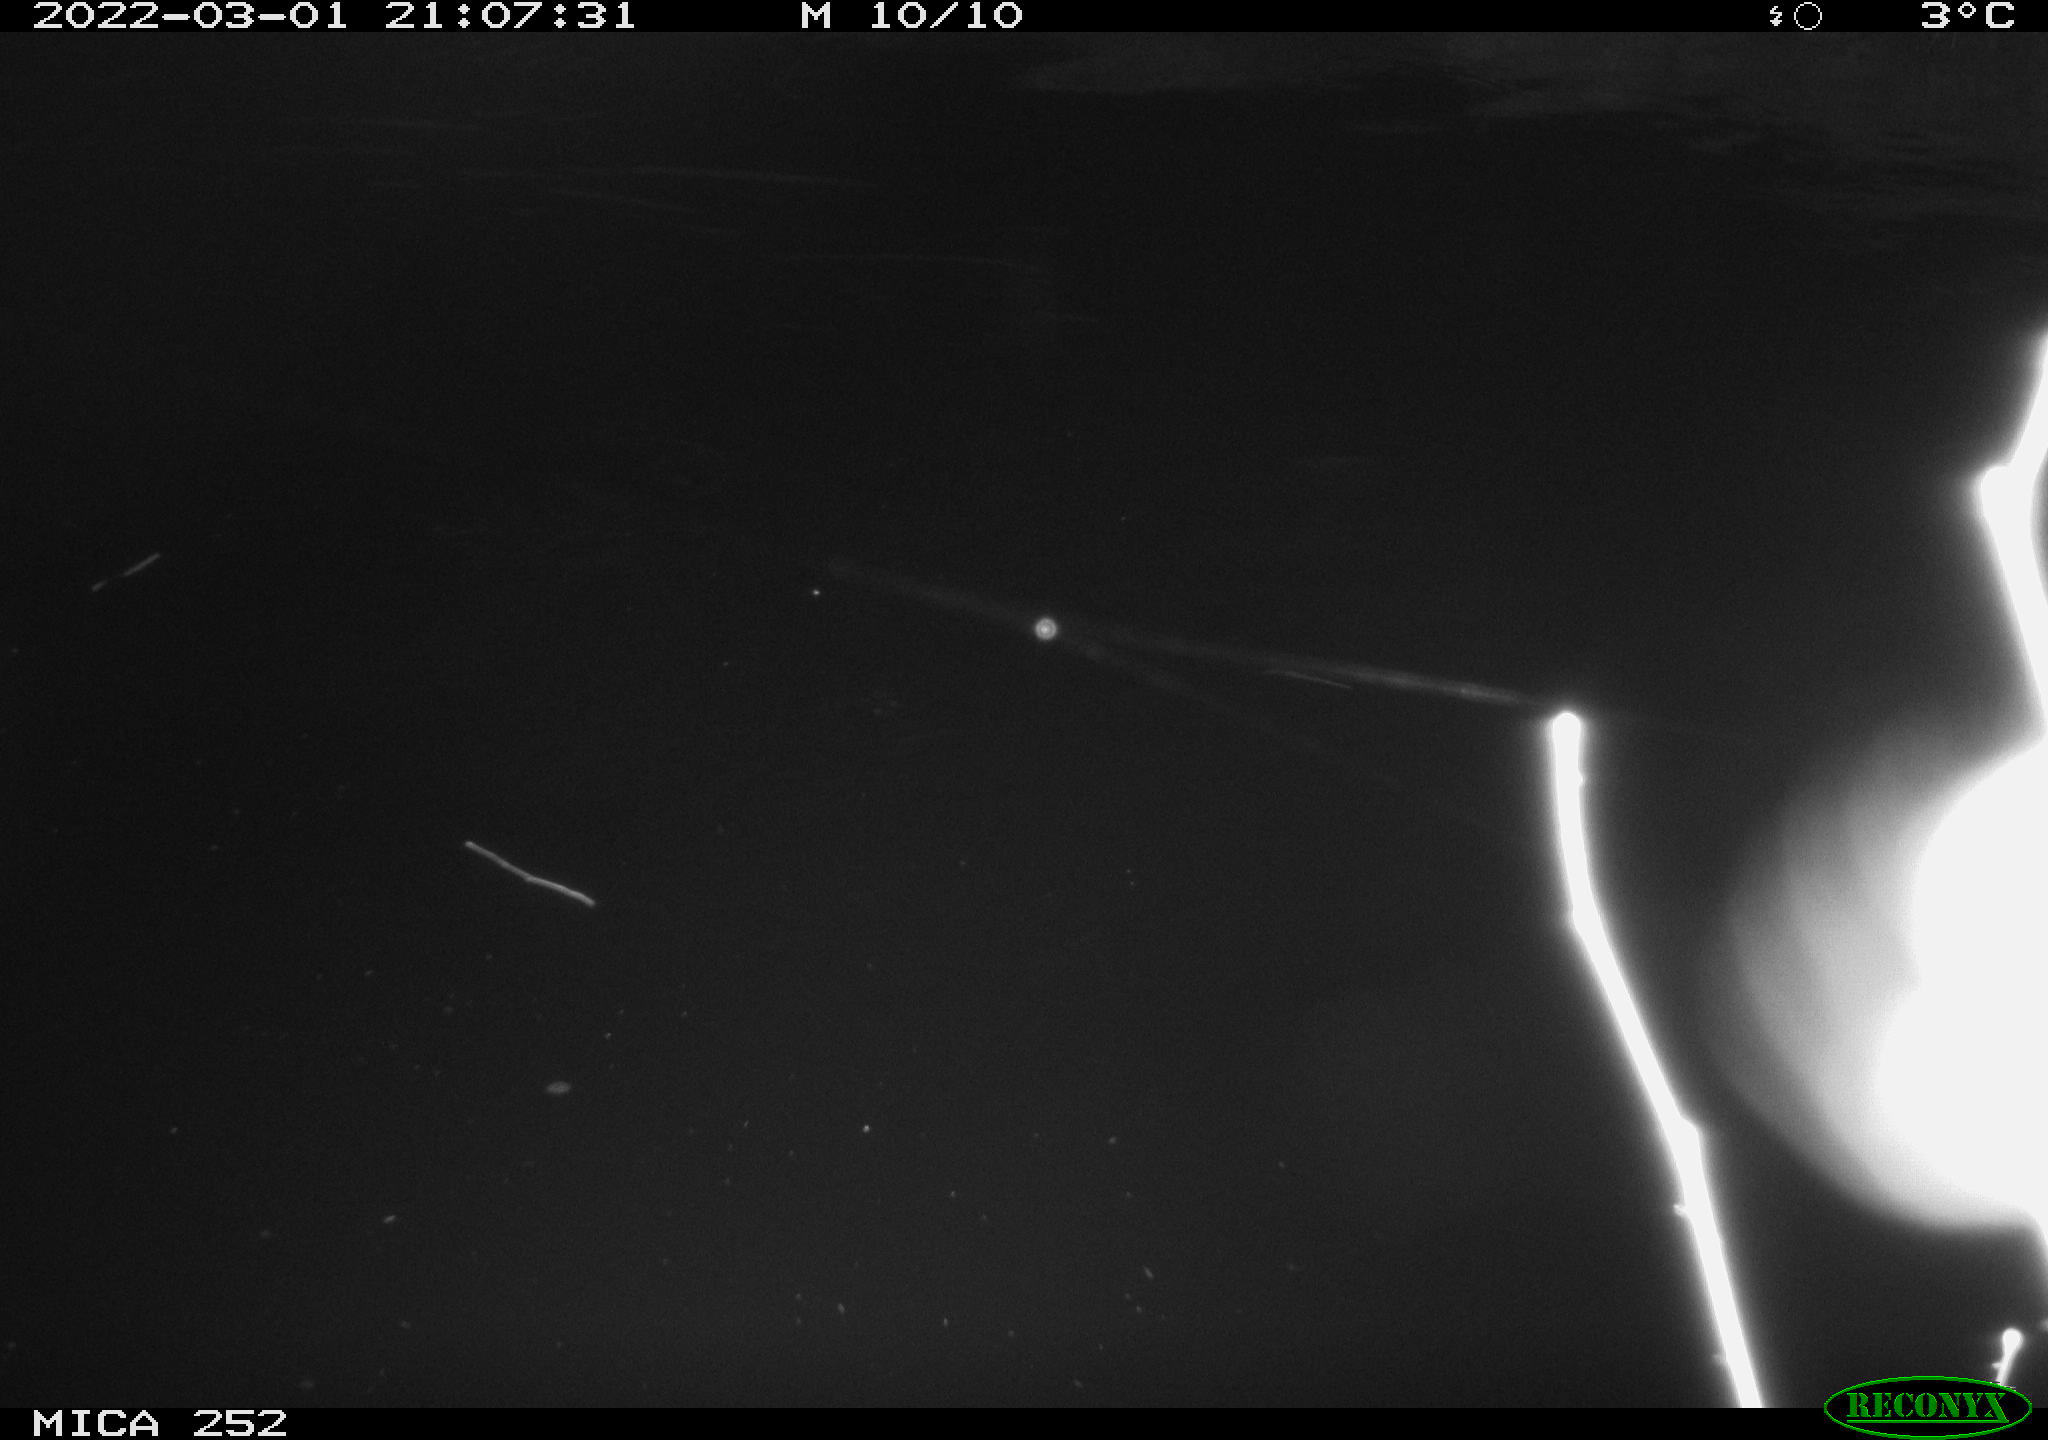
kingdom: Animalia
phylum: Chordata
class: Mammalia
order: Rodentia
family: Castoridae
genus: Castor
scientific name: Castor fiber
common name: Eurasian beaver
